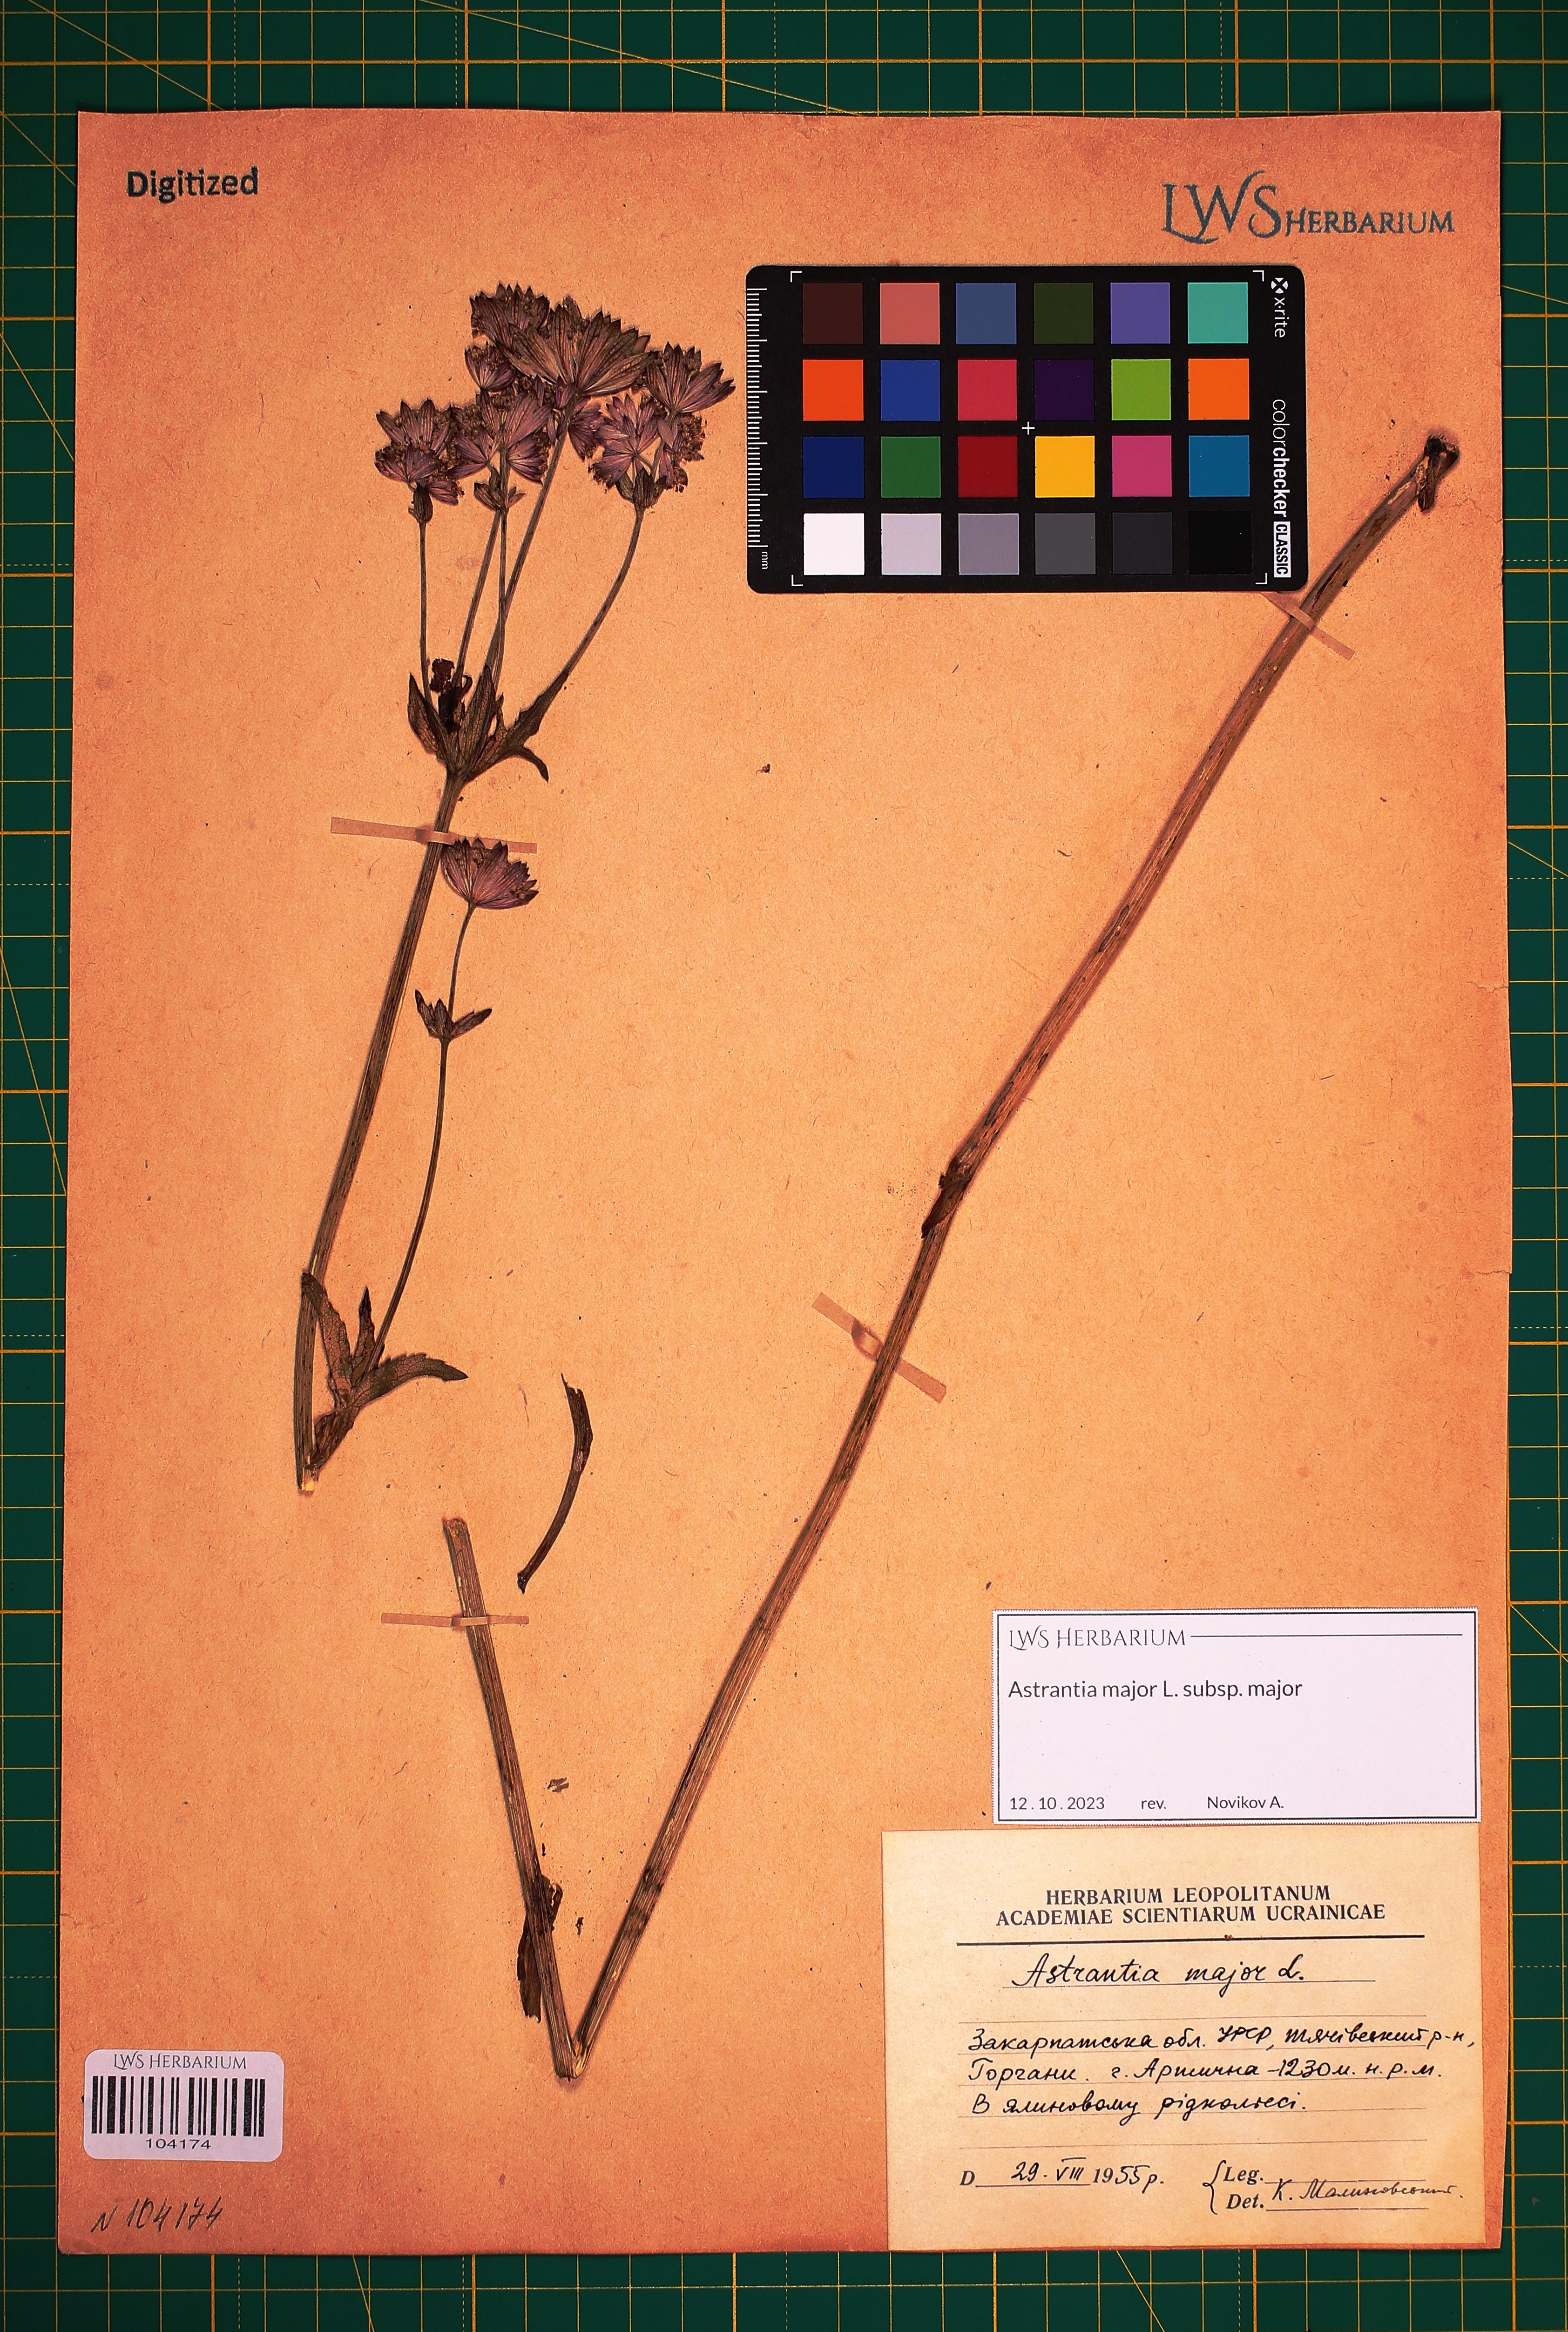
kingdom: Plantae
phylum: Tracheophyta
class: Magnoliopsida
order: Apiales
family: Apiaceae
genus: Astrantia
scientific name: Astrantia major
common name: Greater masterwort
